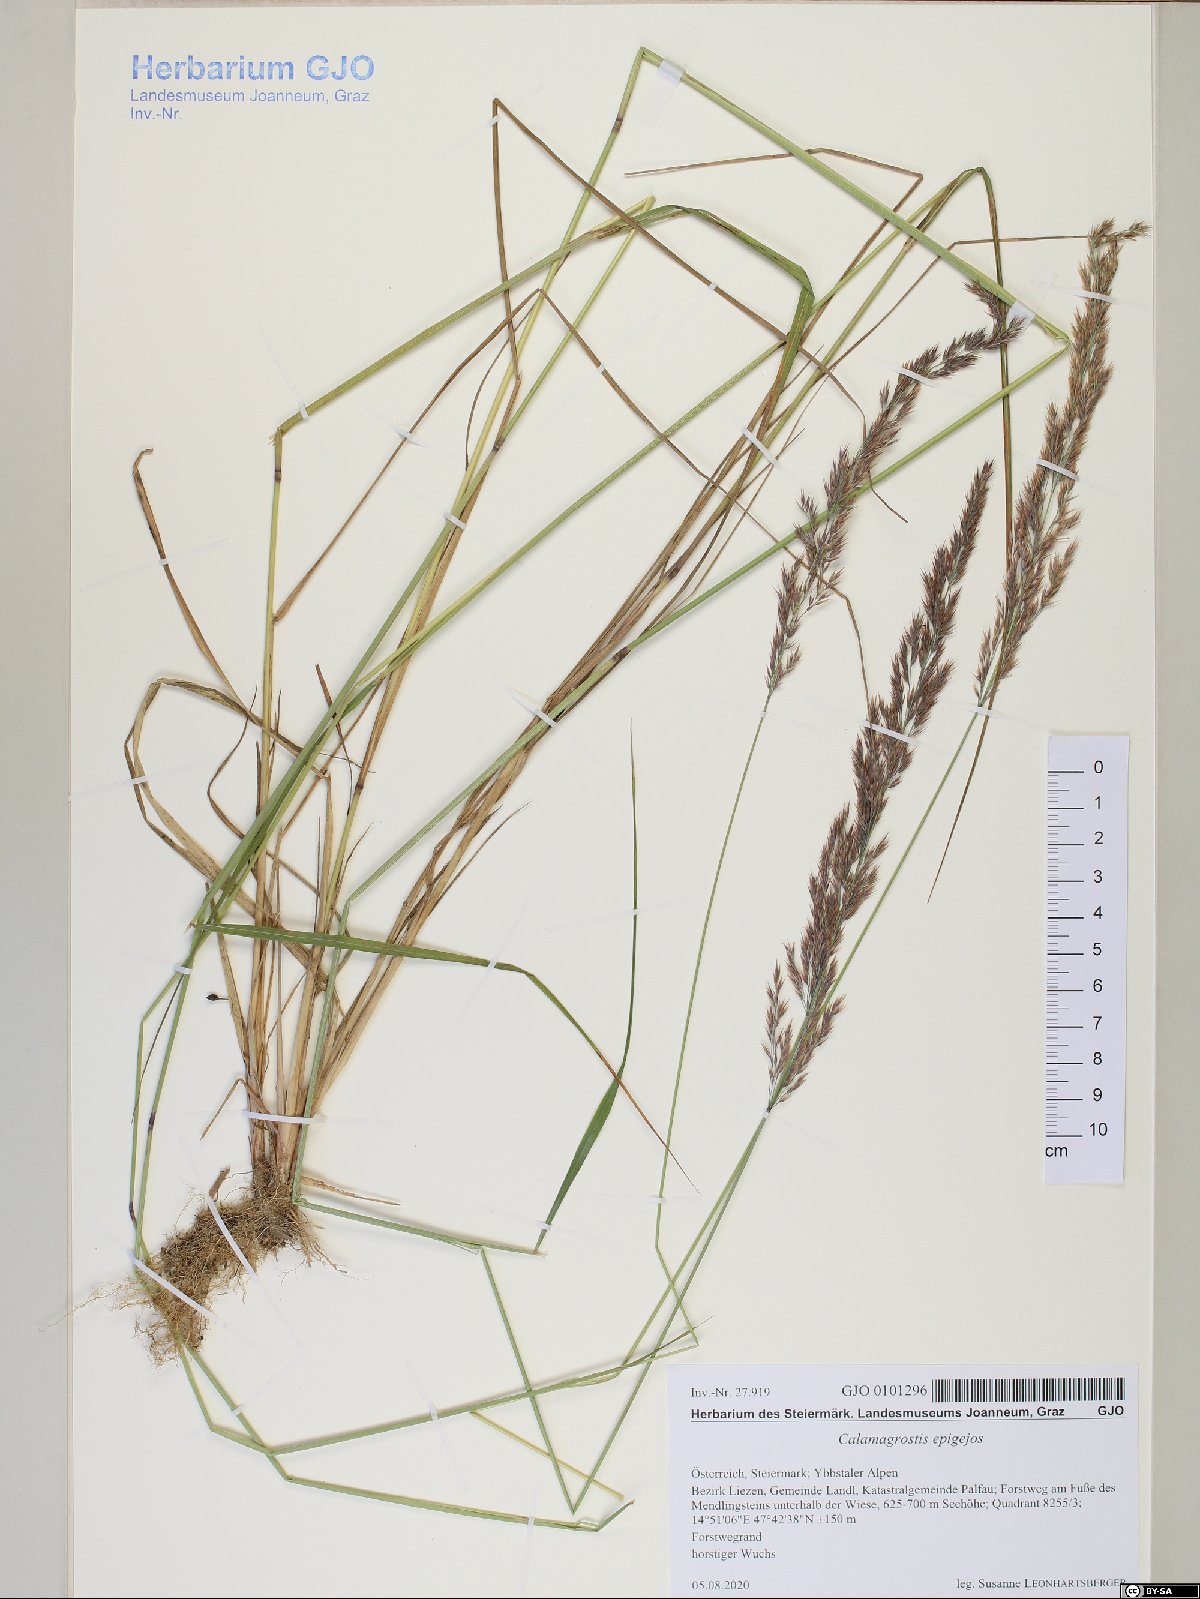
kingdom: Plantae
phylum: Tracheophyta
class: Liliopsida
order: Poales
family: Poaceae
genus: Calamagrostis
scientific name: Calamagrostis epigejos
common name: Wood small-reed
